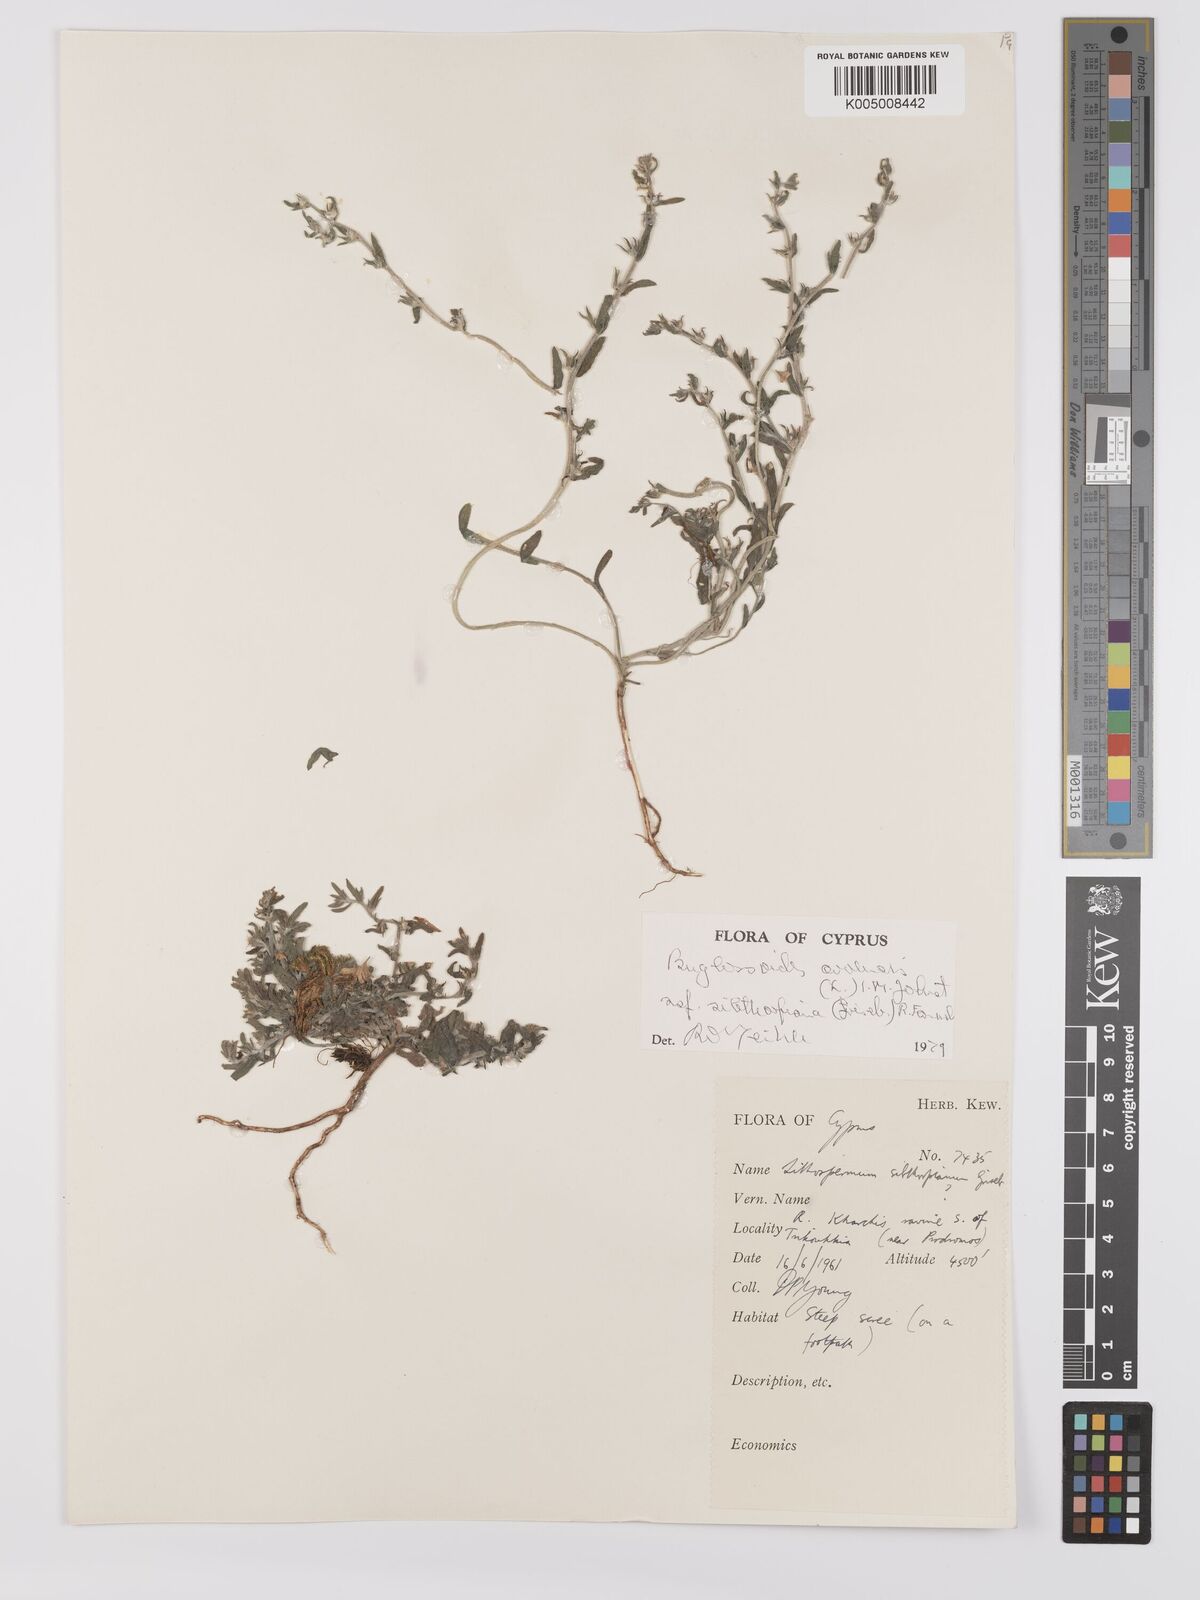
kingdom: Plantae
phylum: Tracheophyta
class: Magnoliopsida
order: Boraginales
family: Boraginaceae
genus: Buglossoides
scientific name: Buglossoides
